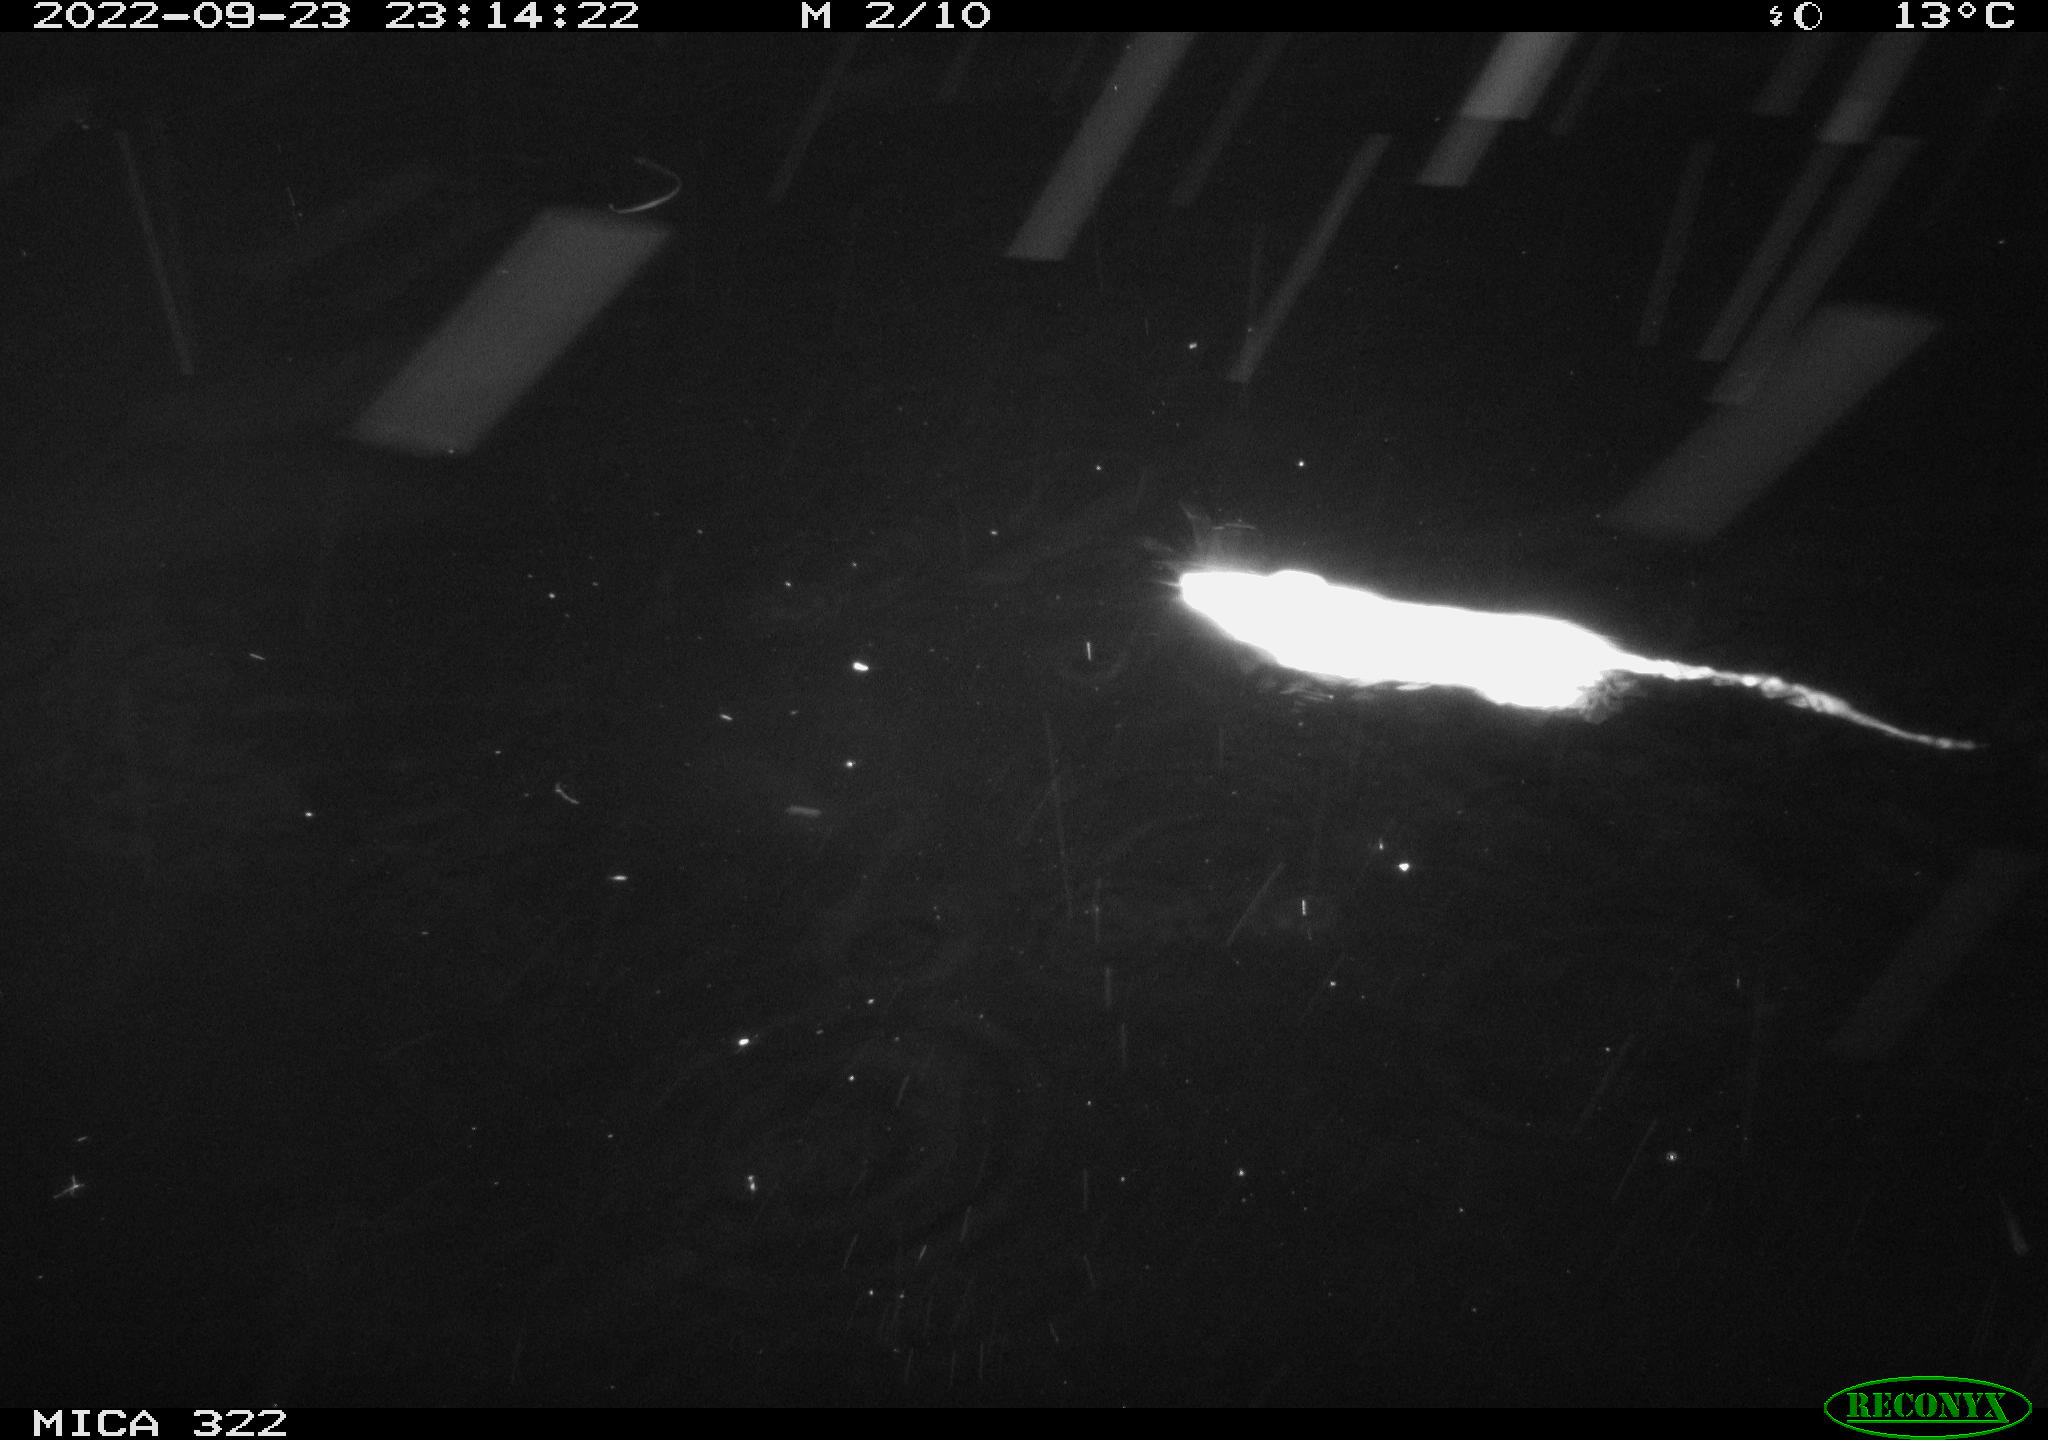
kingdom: Animalia
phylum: Chordata
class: Mammalia
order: Rodentia
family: Cricetidae
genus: Ondatra
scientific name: Ondatra zibethicus
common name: Muskrat
